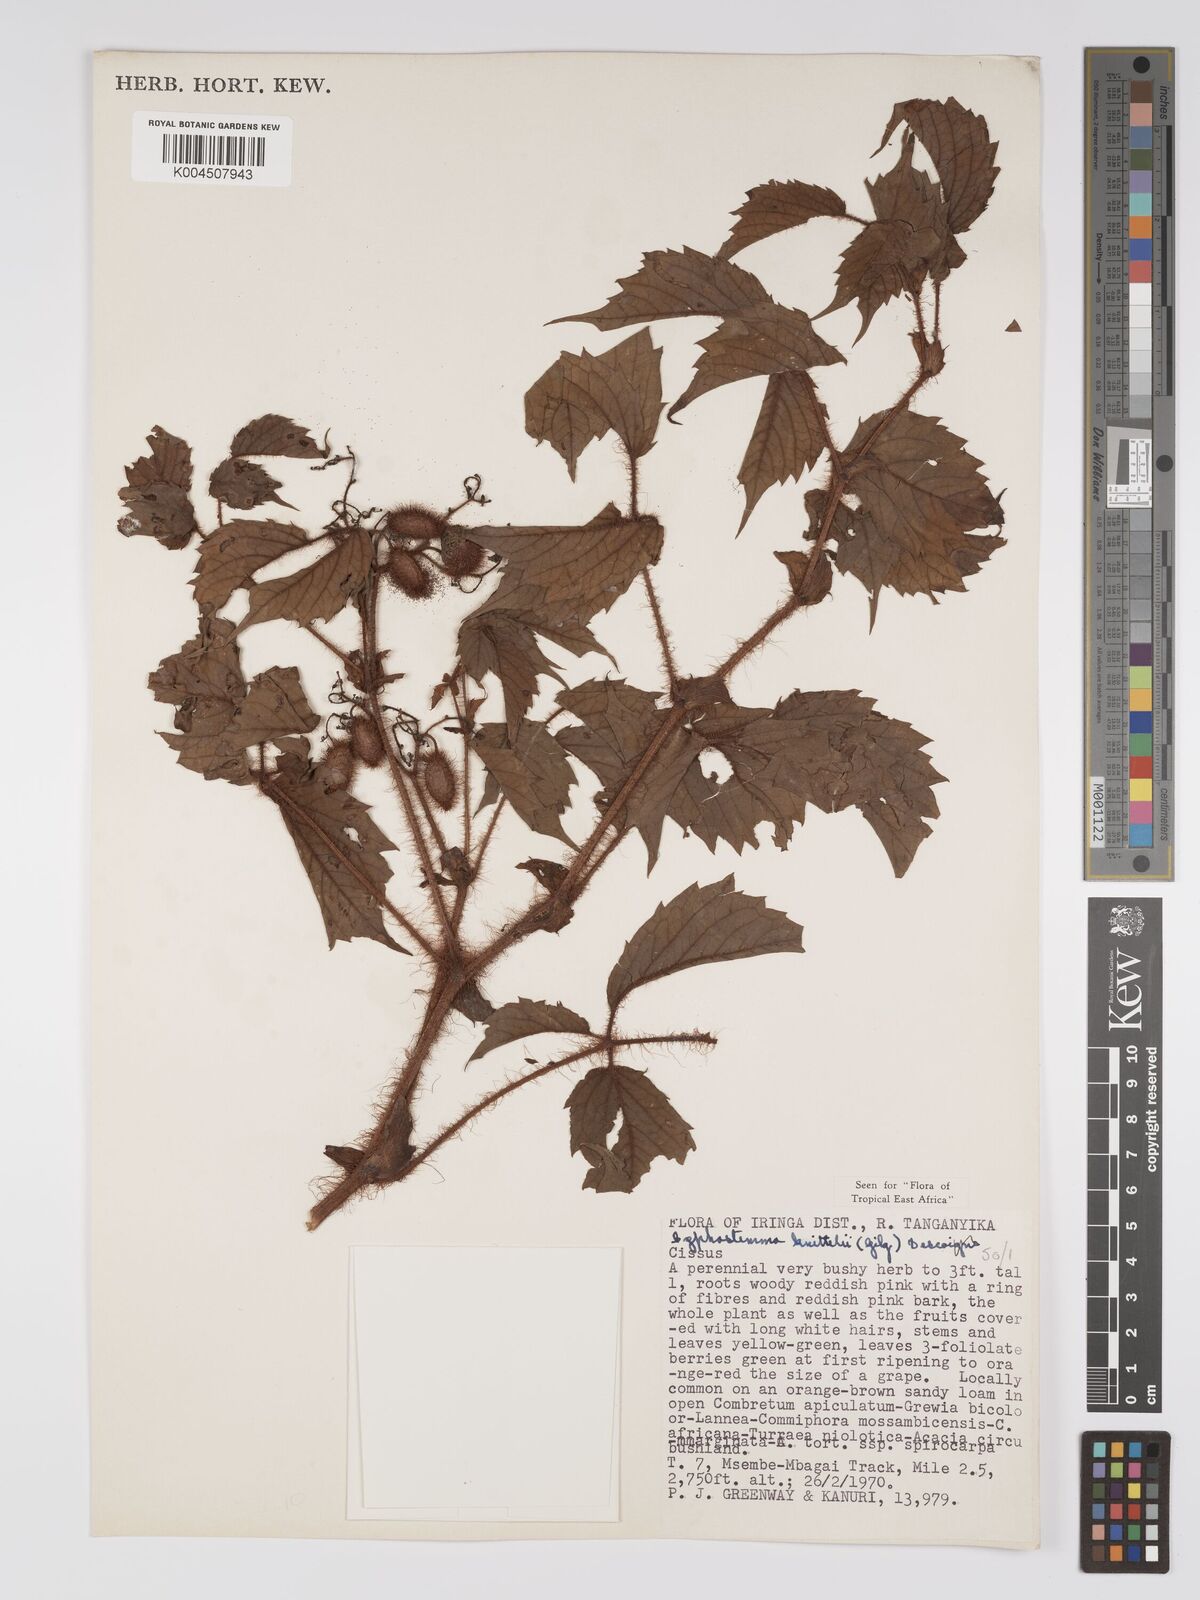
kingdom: Plantae
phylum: Tracheophyta
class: Magnoliopsida
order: Vitales
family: Vitaceae
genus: Cyphostemma
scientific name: Cyphostemma knittelii
